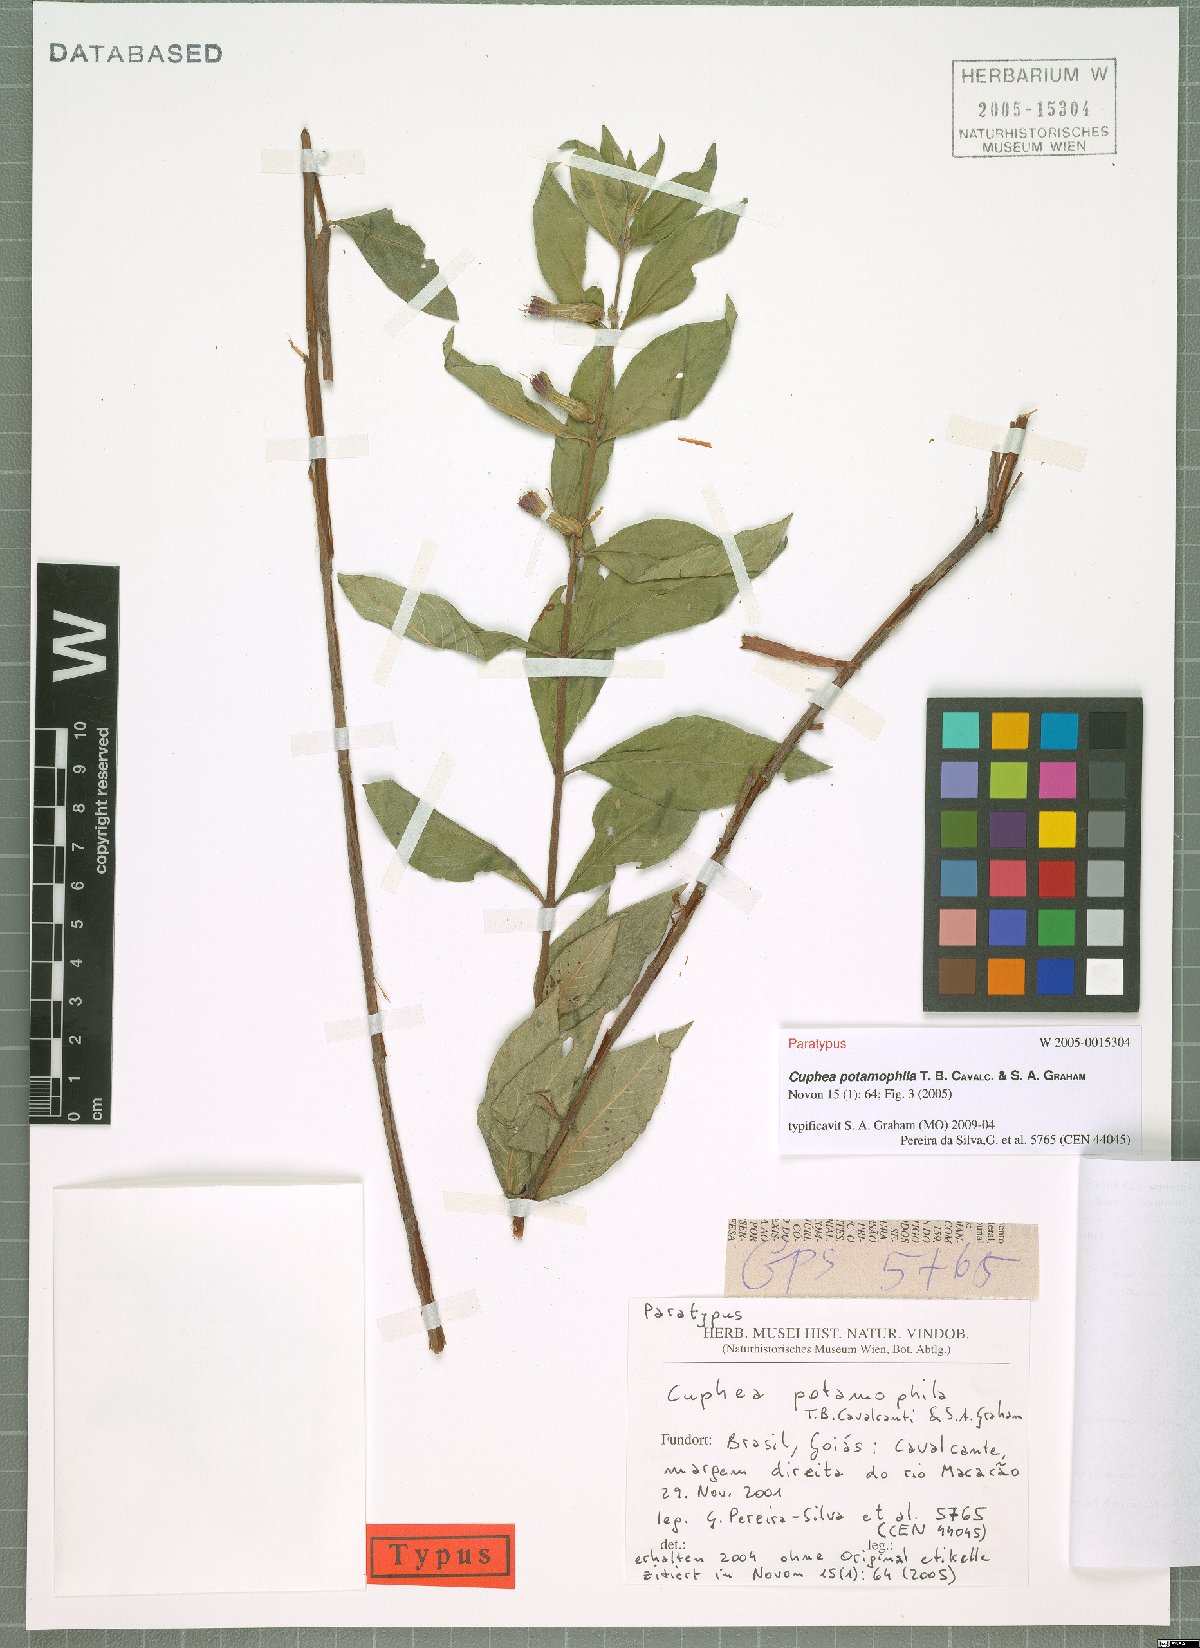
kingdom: Plantae
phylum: Tracheophyta
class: Magnoliopsida
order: Myrtales
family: Lythraceae
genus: Cuphea
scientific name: Cuphea potamophila
